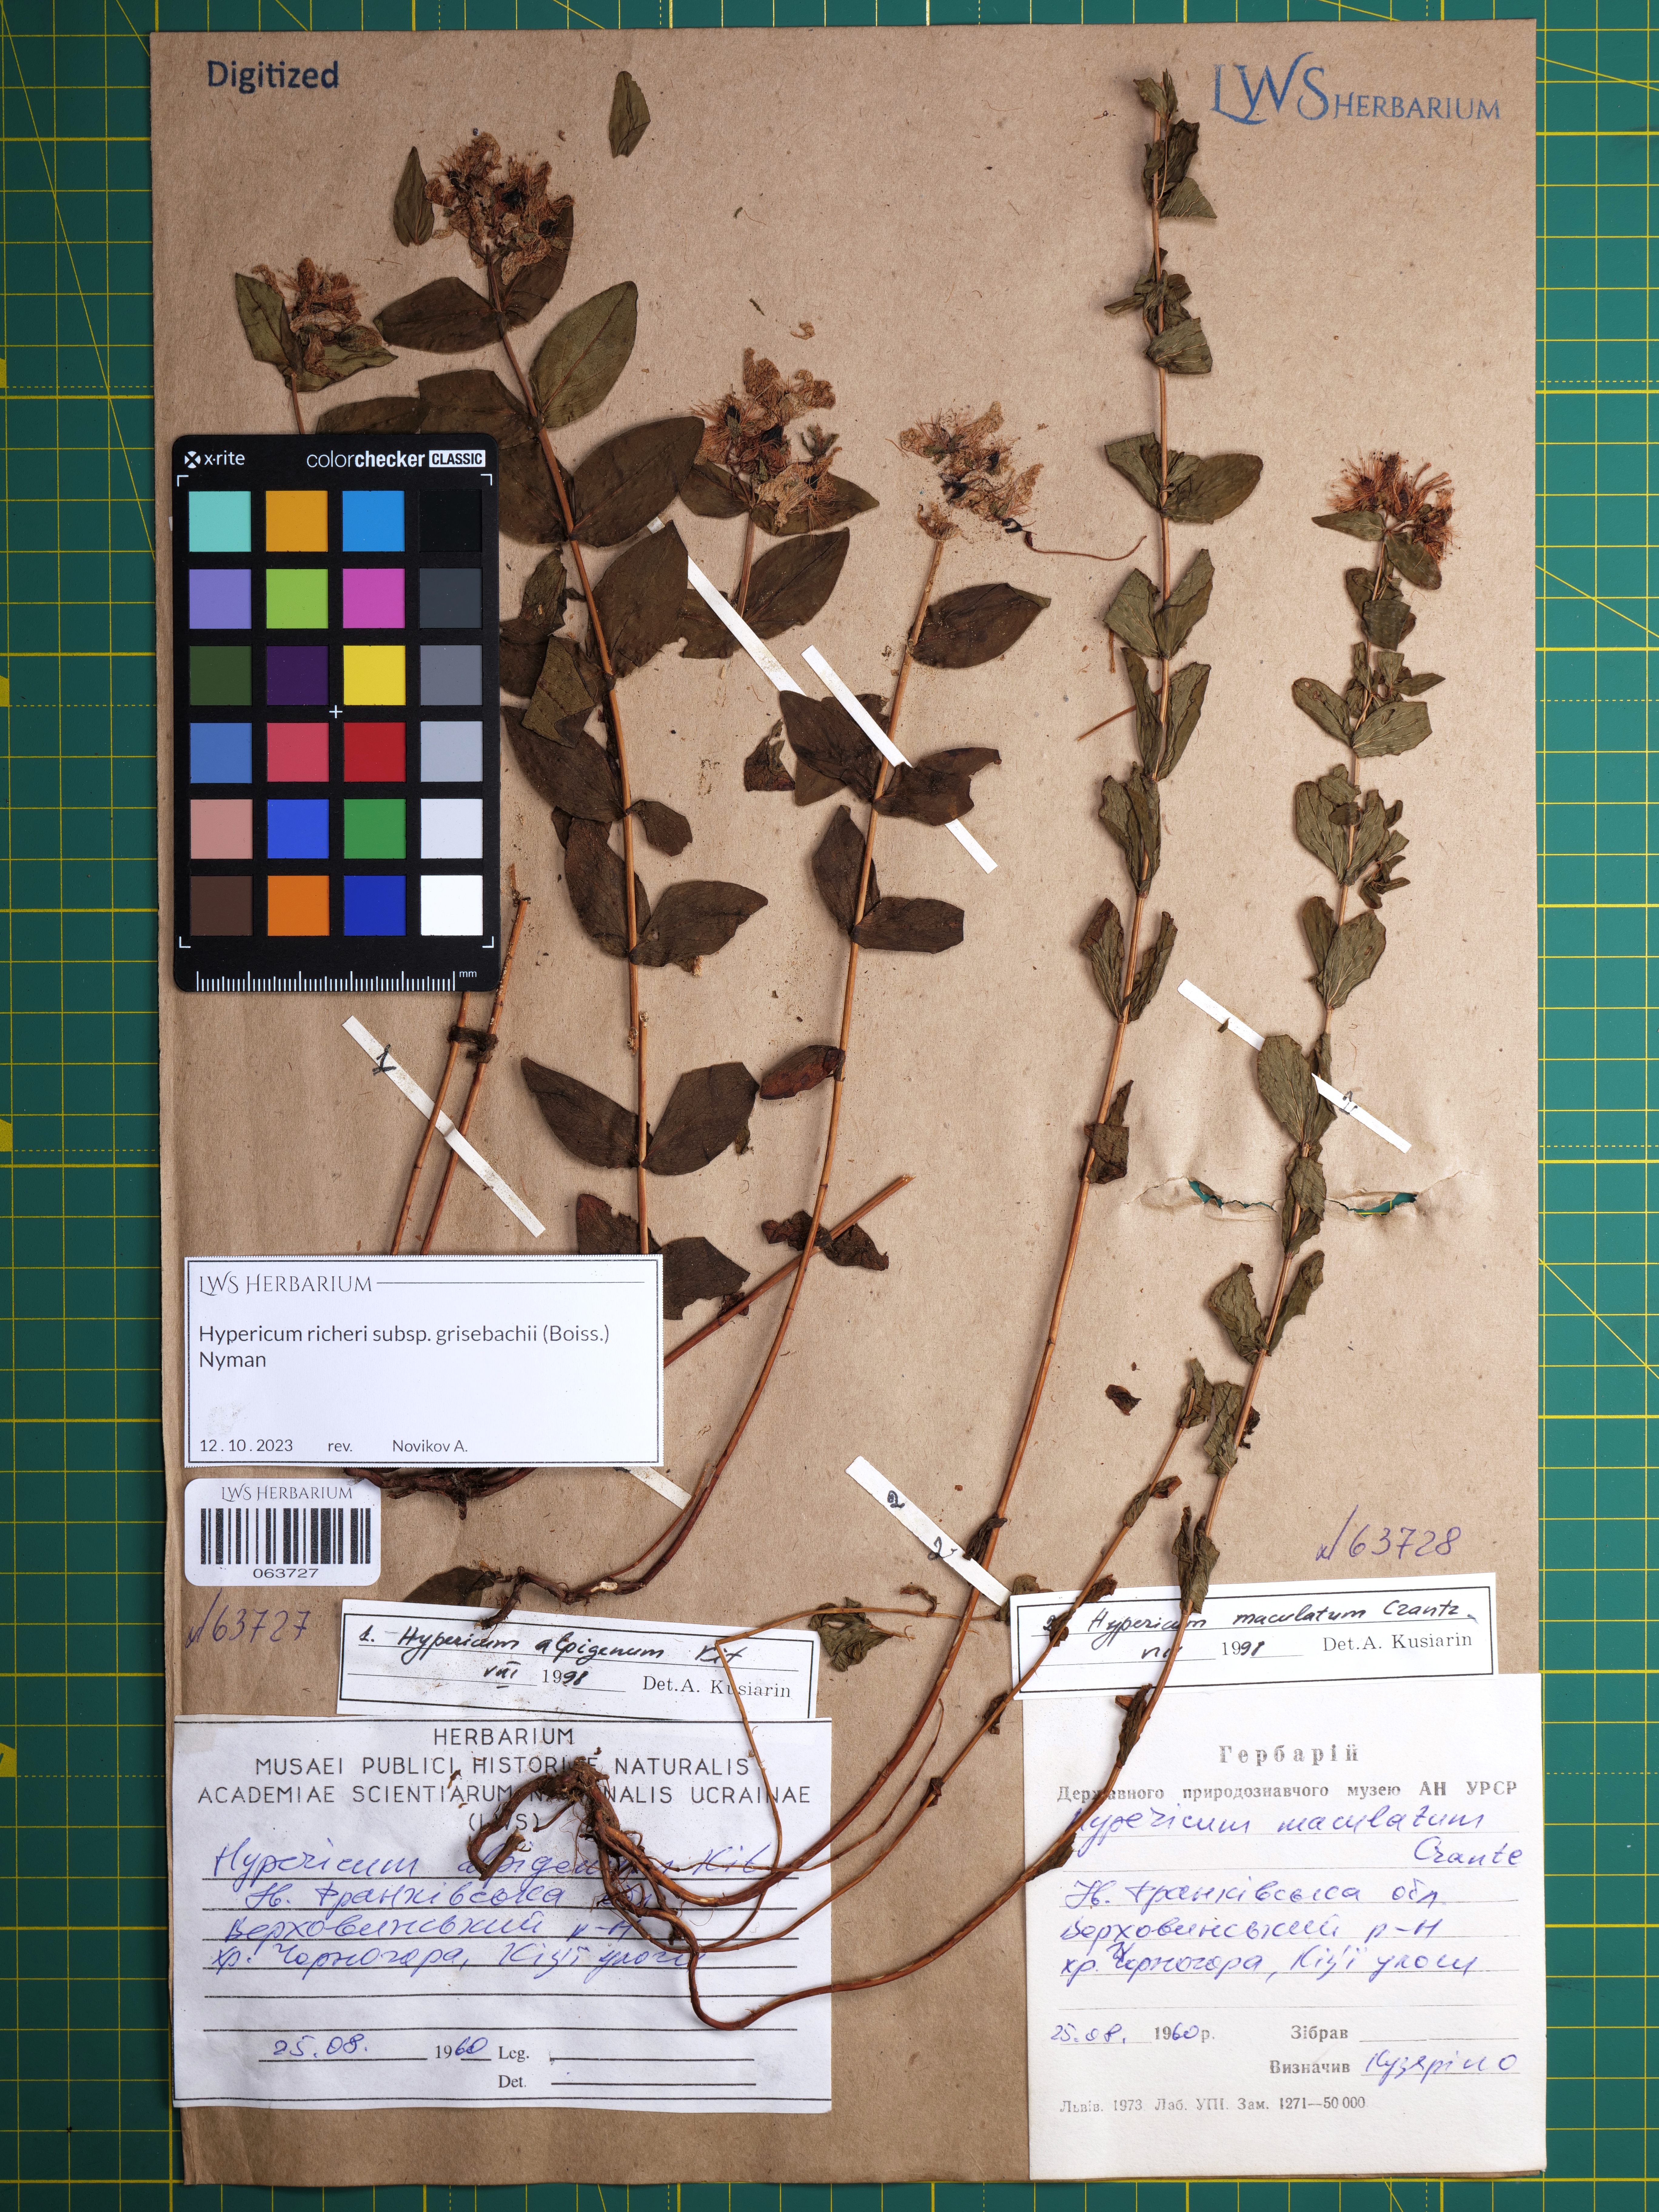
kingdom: Plantae
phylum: Tracheophyta
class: Magnoliopsida
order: Malpighiales
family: Hypericaceae
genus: Hypericum
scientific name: Hypericum richeri
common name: Alpine st john's-wort
